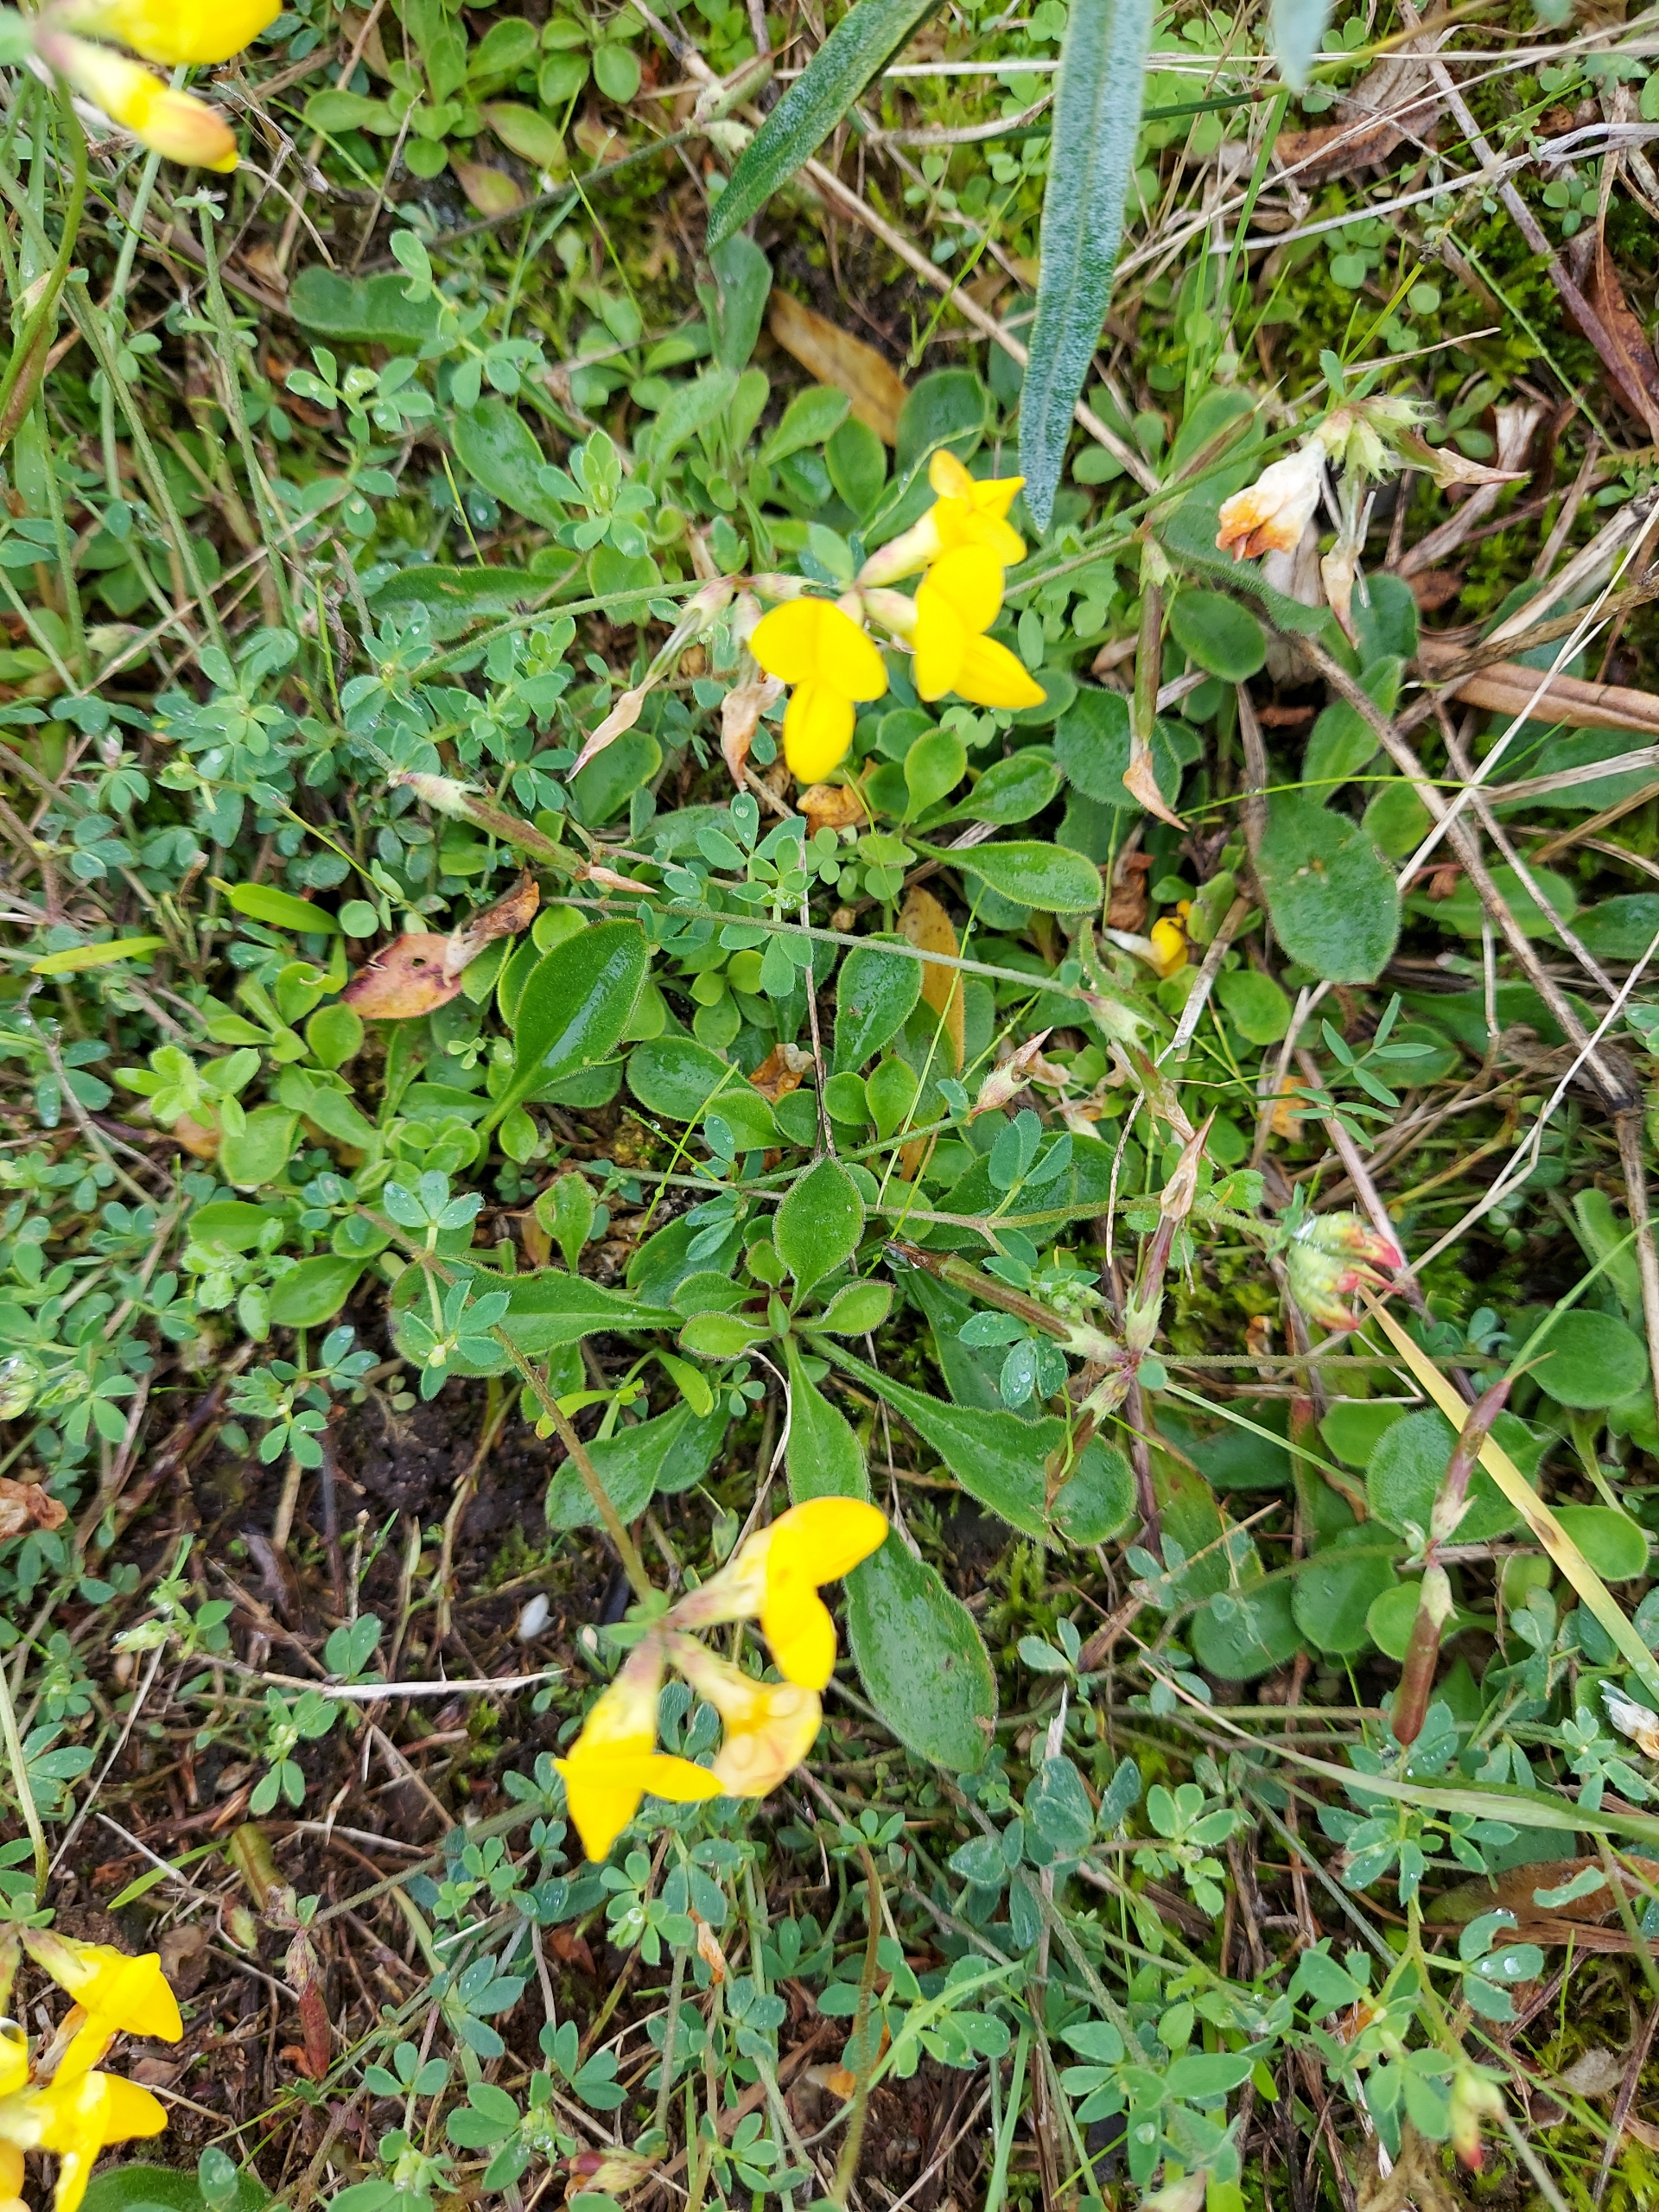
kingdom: Plantae
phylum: Tracheophyta
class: Magnoliopsida
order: Fabales
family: Fabaceae
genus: Lotus
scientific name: Lotus corniculatus
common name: Almindelig kællingetand
